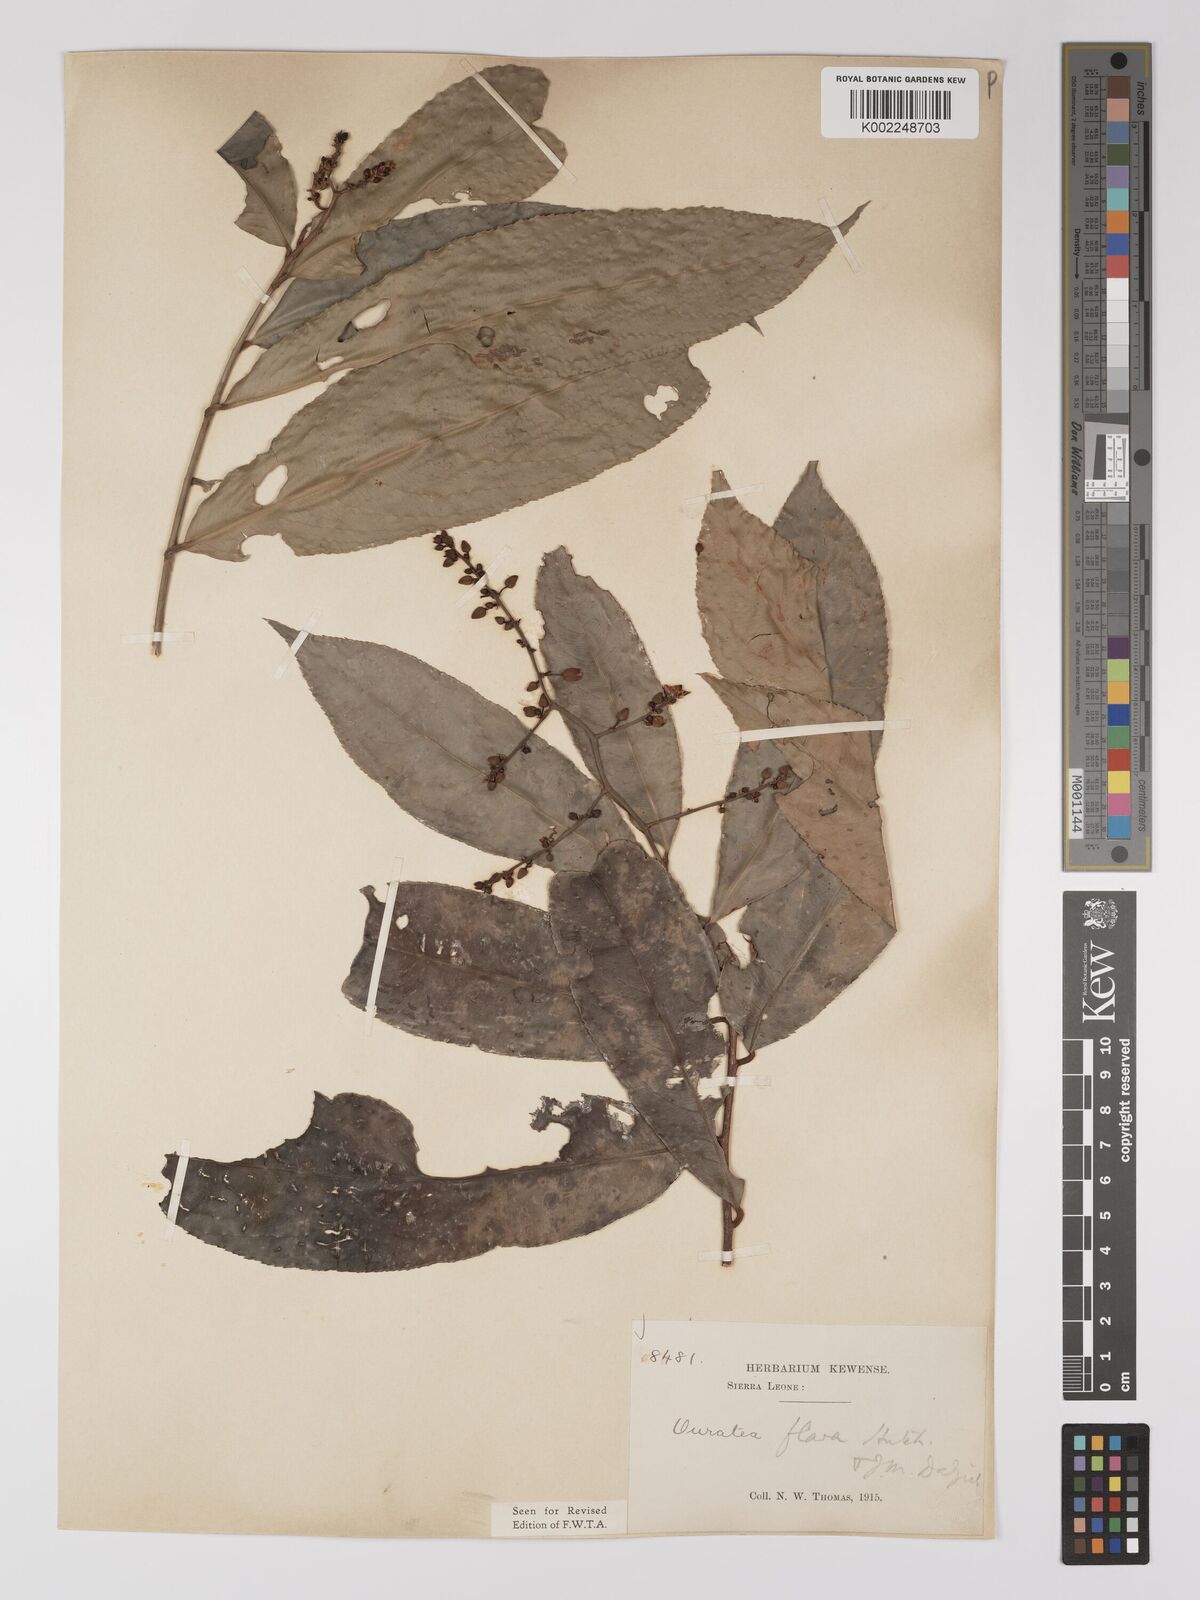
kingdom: Plantae
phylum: Tracheophyta
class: Magnoliopsida
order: Malpighiales
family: Ochnaceae
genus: Campylospermum
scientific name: Campylospermum flavum
